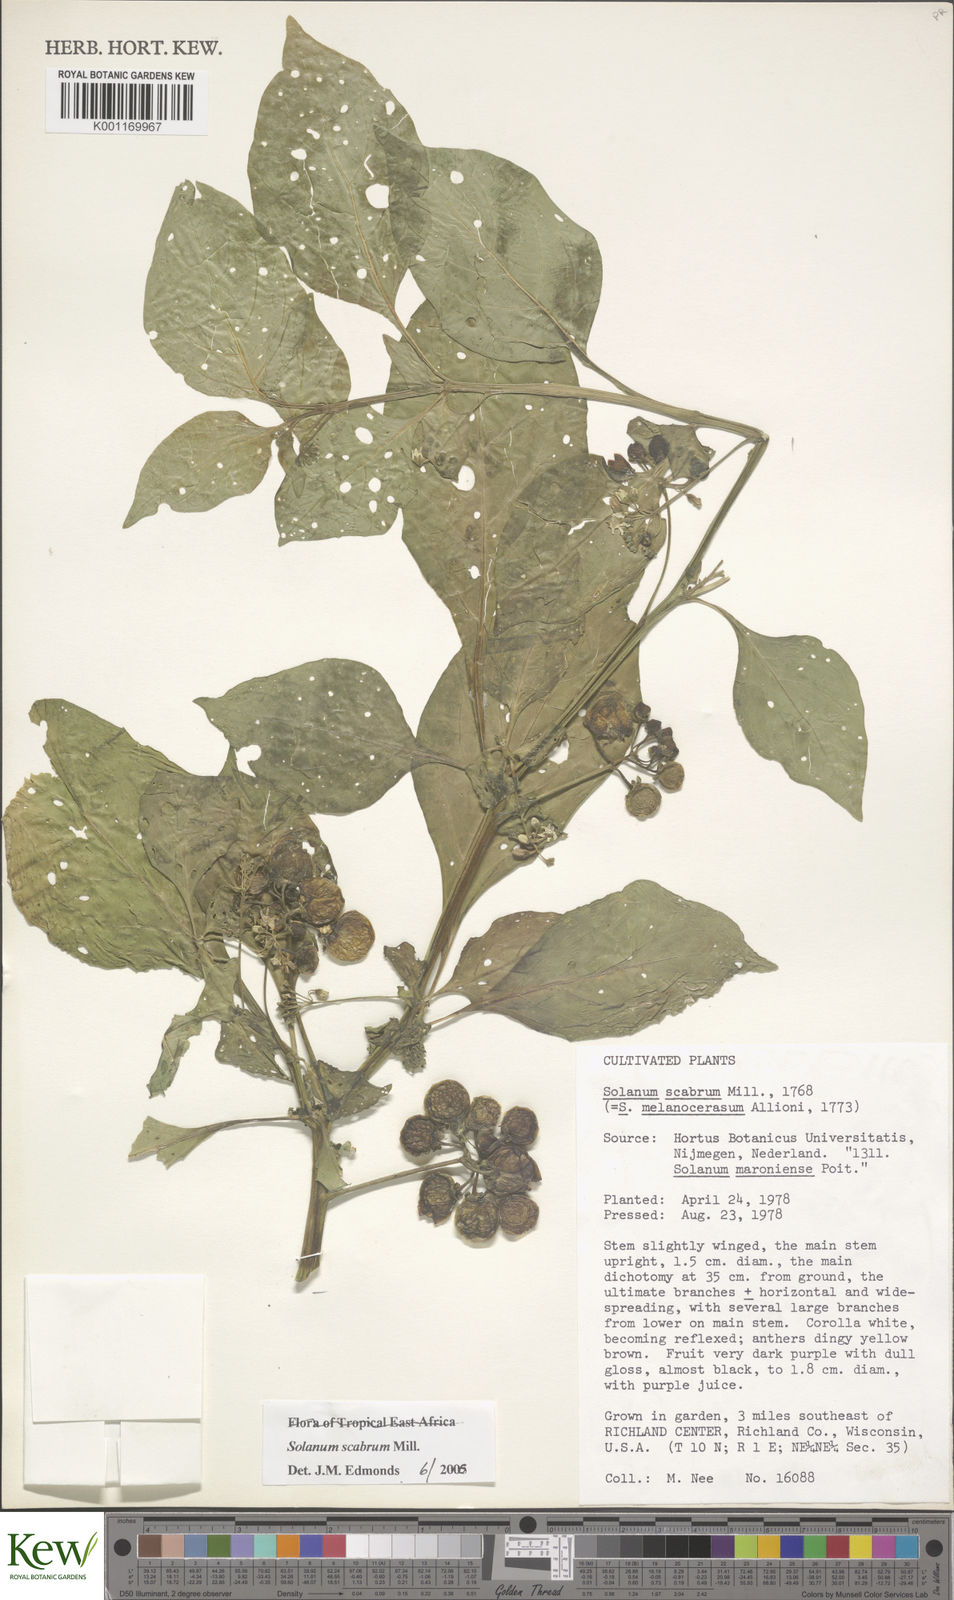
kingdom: Plantae
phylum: Tracheophyta
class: Magnoliopsida
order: Solanales
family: Solanaceae
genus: Solanum
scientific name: Solanum scabrum
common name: Garden-huckleberry
